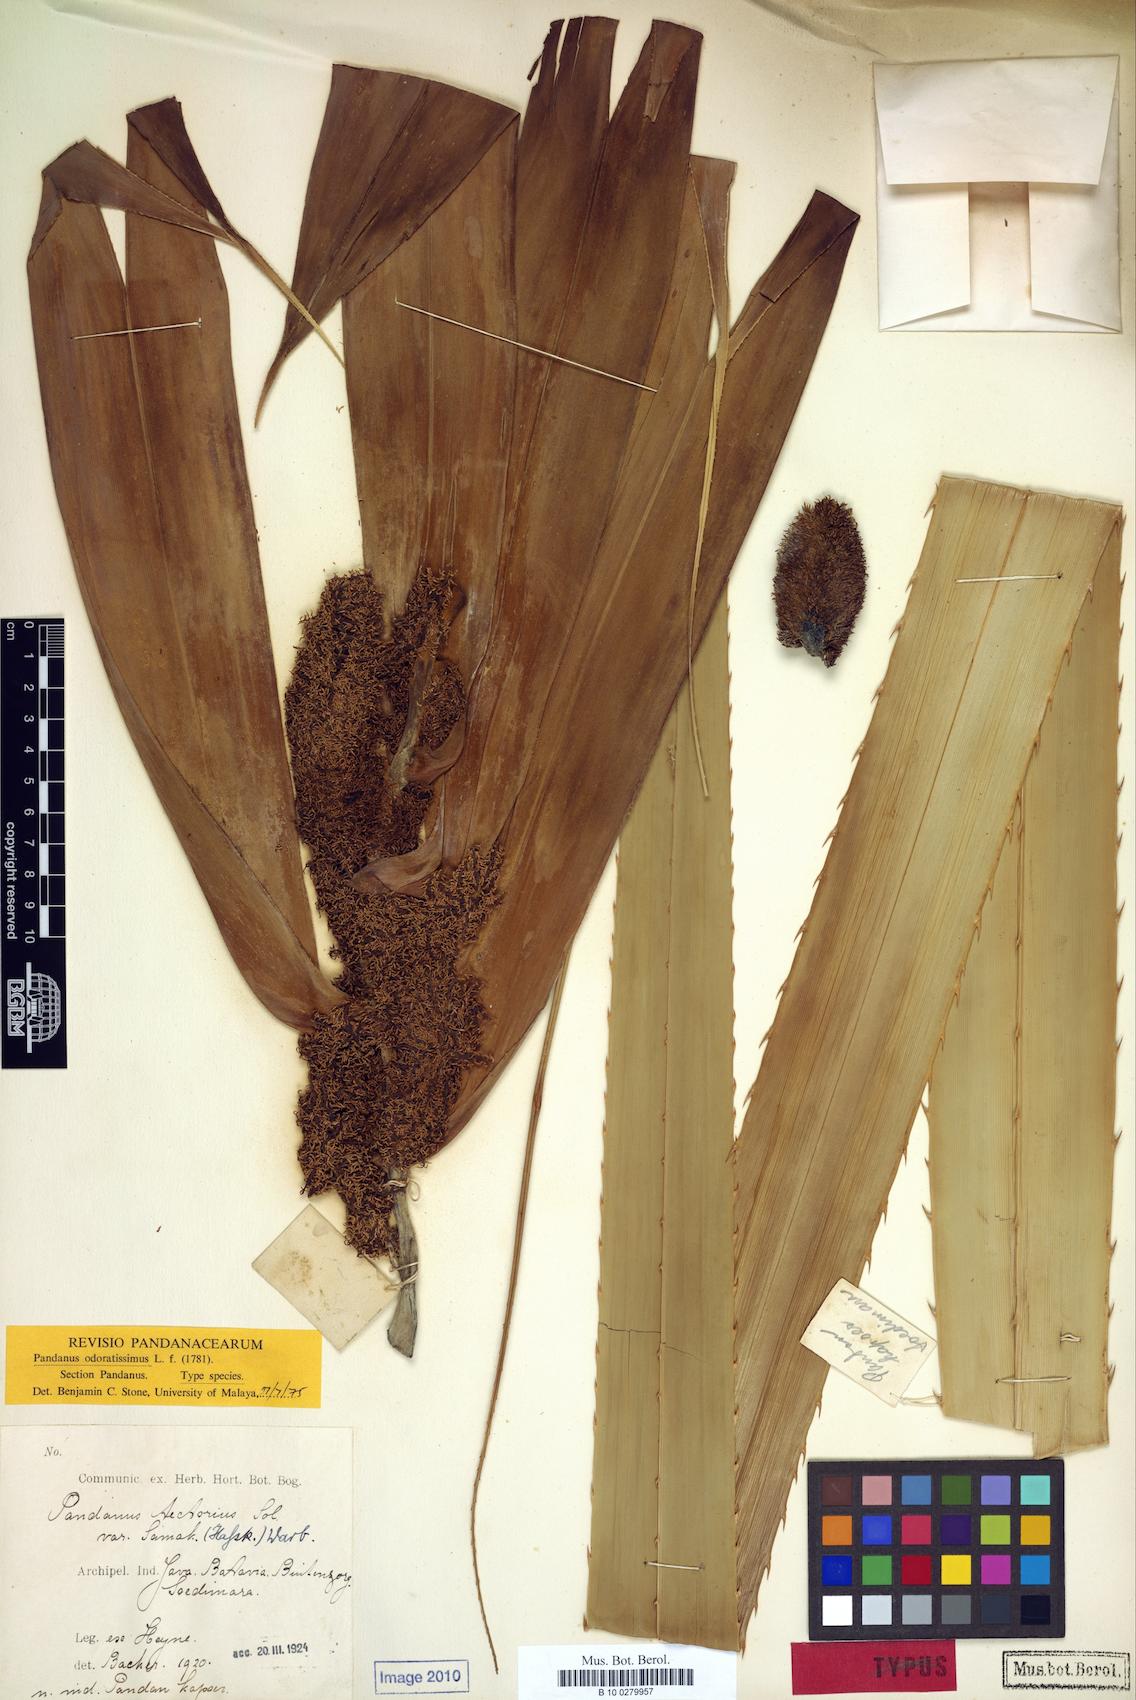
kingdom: Plantae
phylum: Tracheophyta
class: Liliopsida
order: Pandanales
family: Pandanaceae
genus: Pandanus
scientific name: Pandanus odorifer
